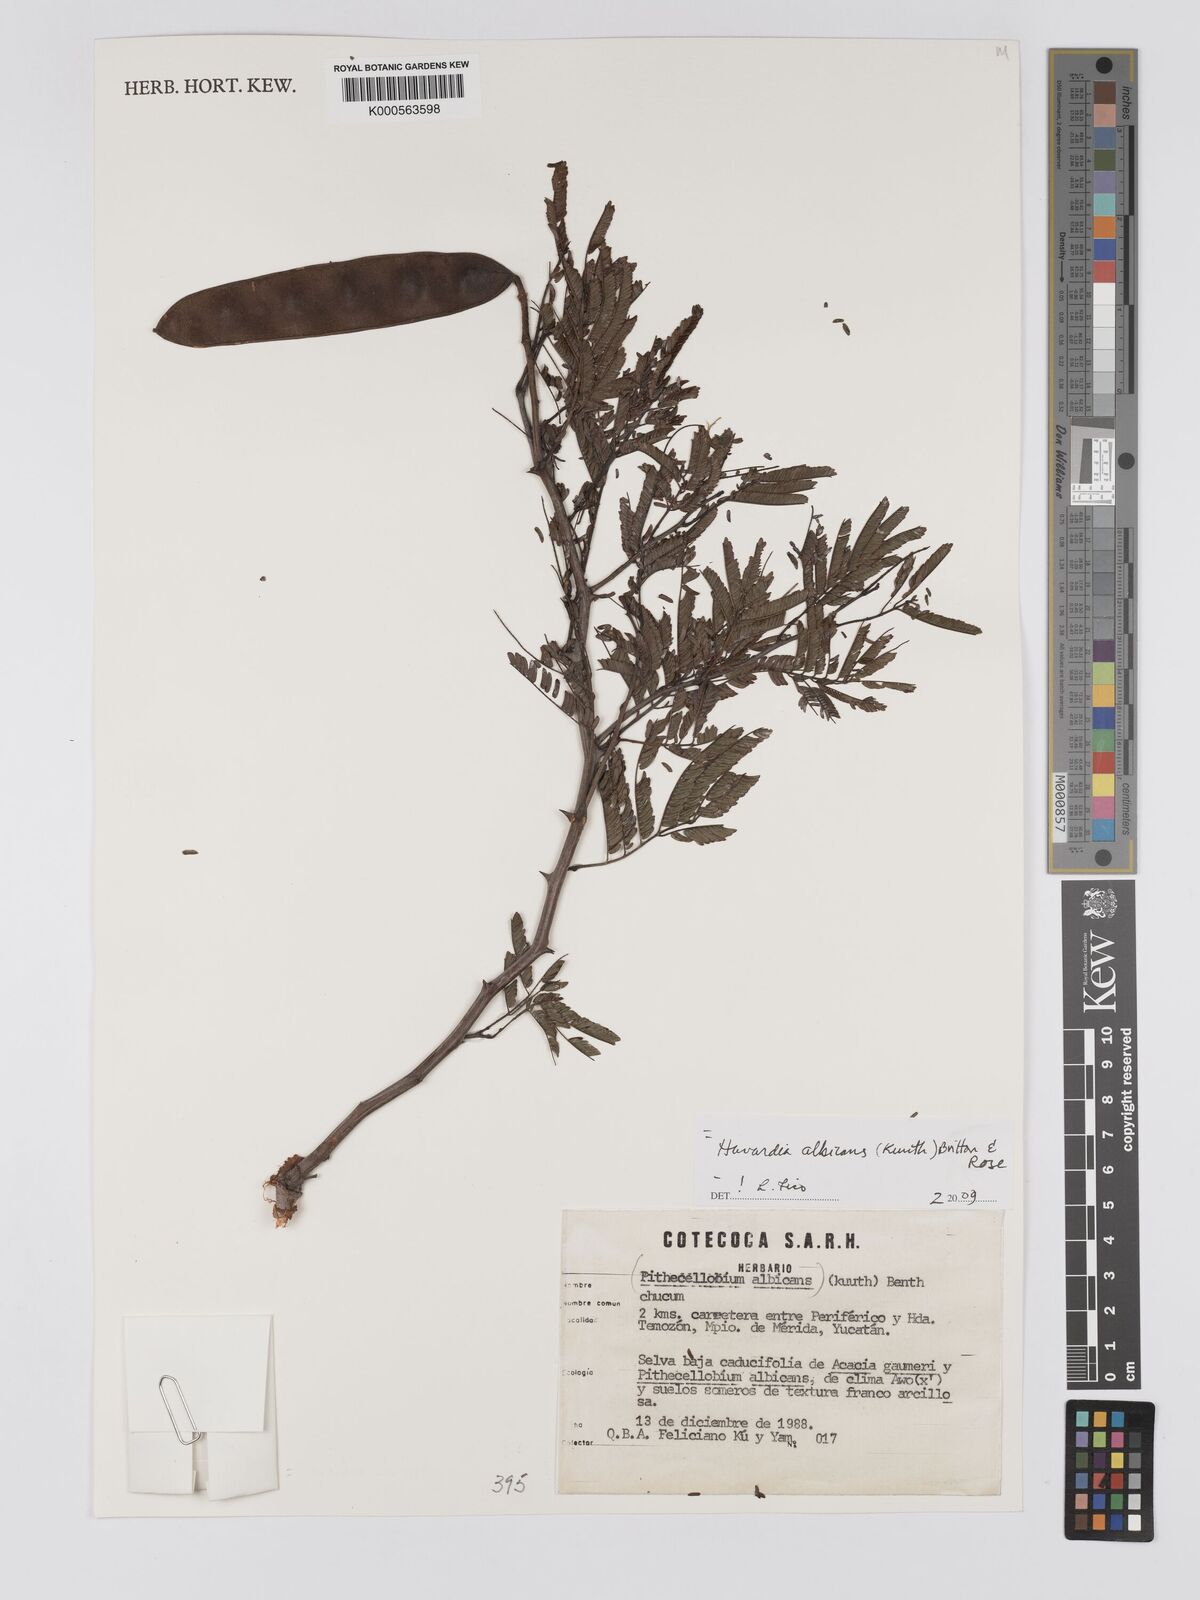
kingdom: Plantae
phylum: Tracheophyta
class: Magnoliopsida
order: Fabales
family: Fabaceae
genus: Havardia
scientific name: Havardia albicans
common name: Huisache
